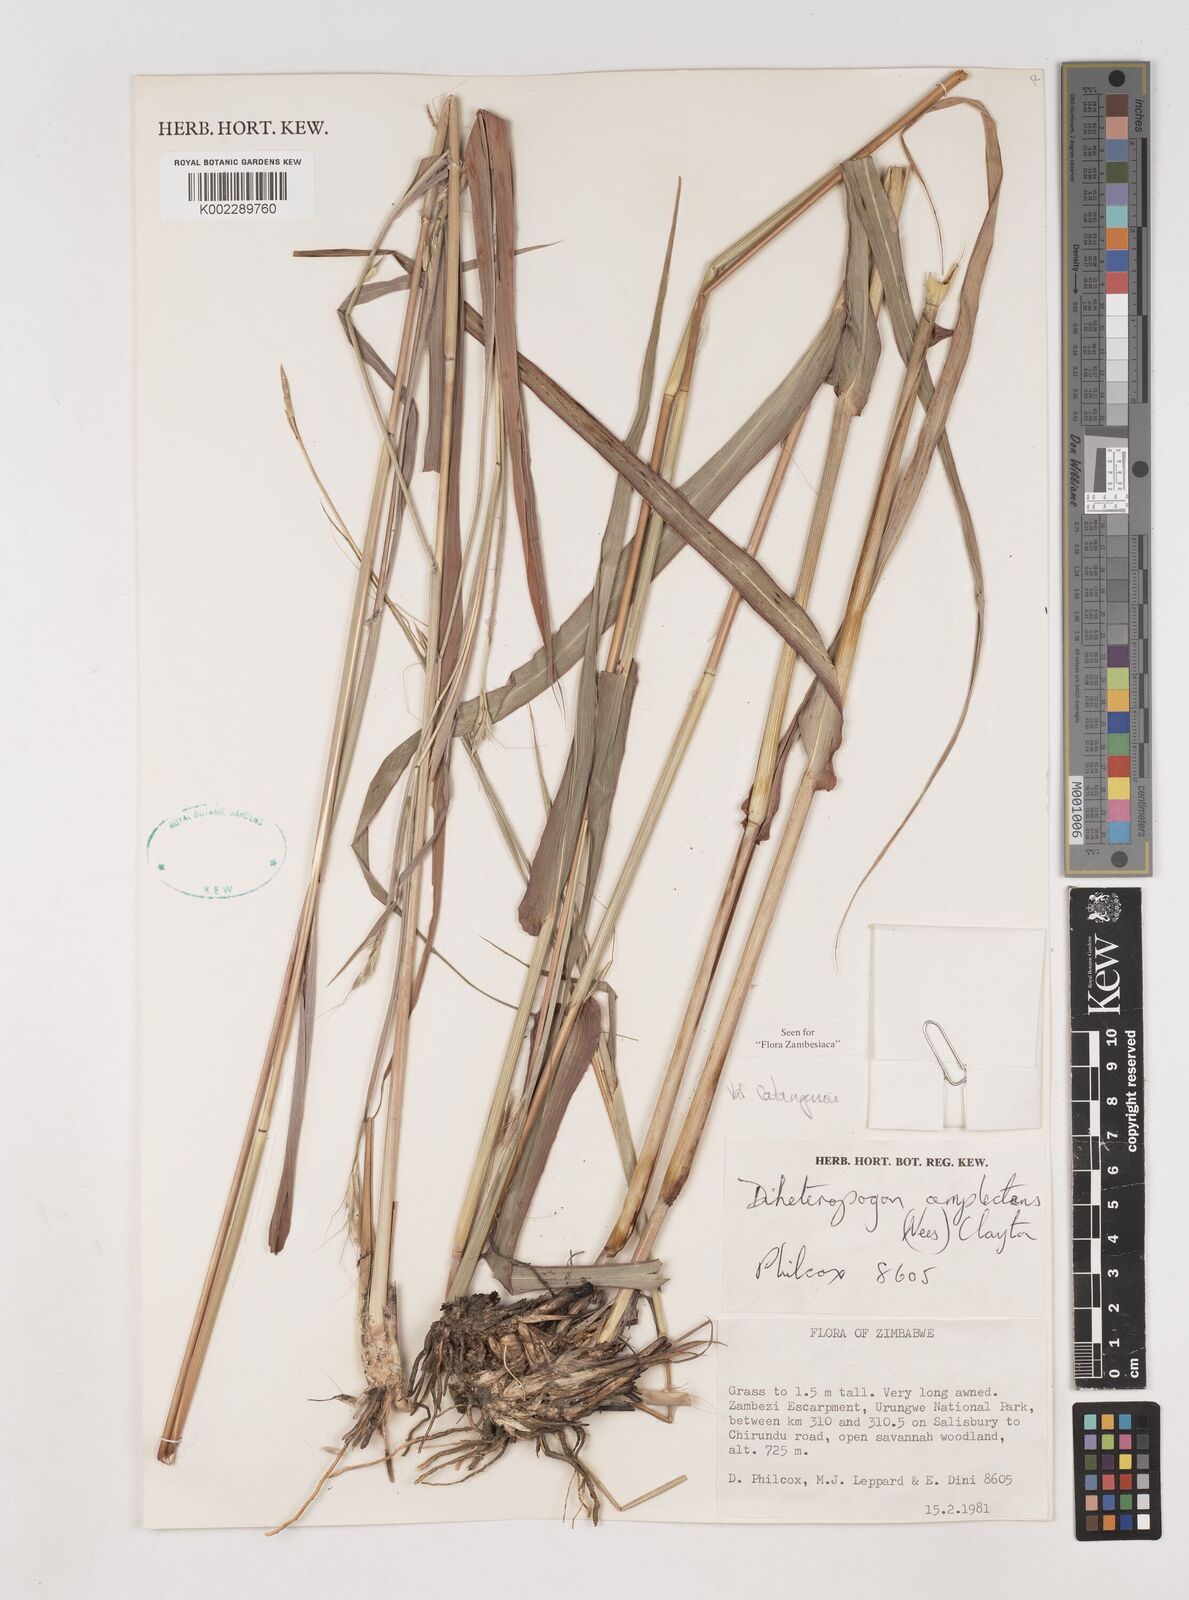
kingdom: Plantae
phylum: Tracheophyta
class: Liliopsida
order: Poales
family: Poaceae
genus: Diheteropogon
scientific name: Diheteropogon amplectens
